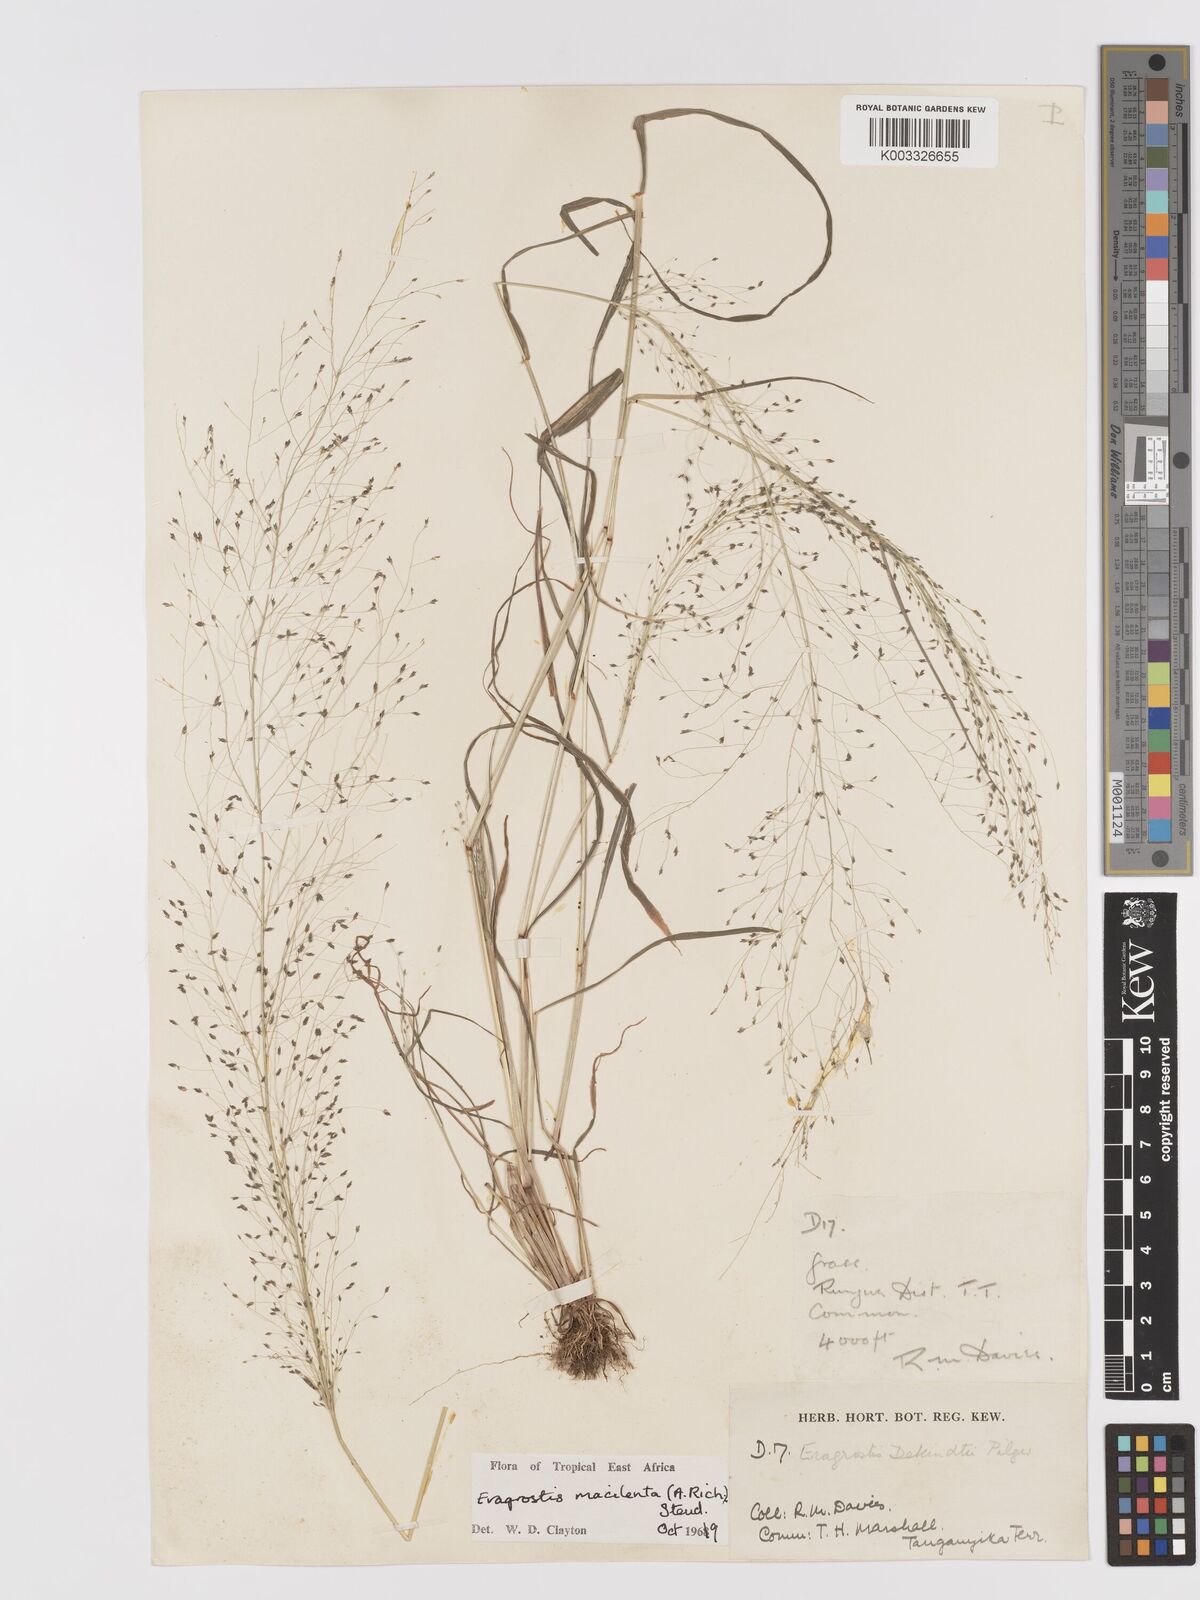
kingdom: Plantae
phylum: Tracheophyta
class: Liliopsida
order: Poales
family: Poaceae
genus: Eragrostis
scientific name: Eragrostis macilenta
